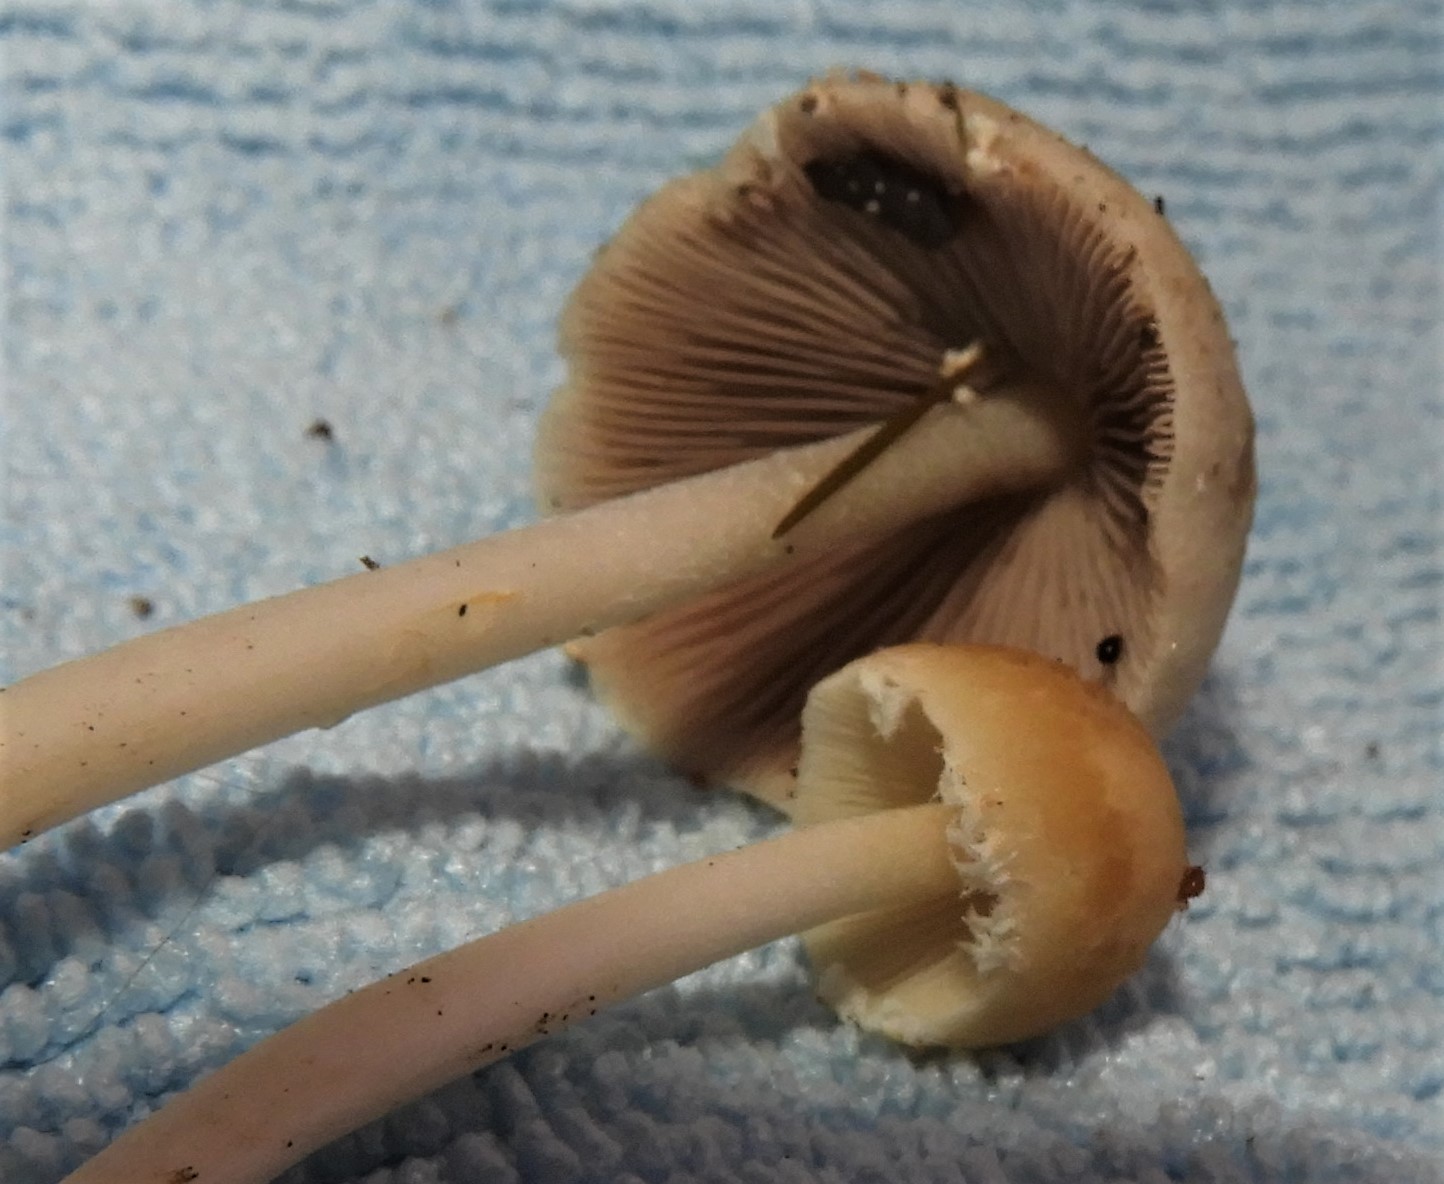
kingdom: Fungi
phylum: Basidiomycota
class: Agaricomycetes
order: Agaricales
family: Psathyrellaceae
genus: Candolleomyces
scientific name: Candolleomyces candolleanus
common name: Candolles mørkhat
